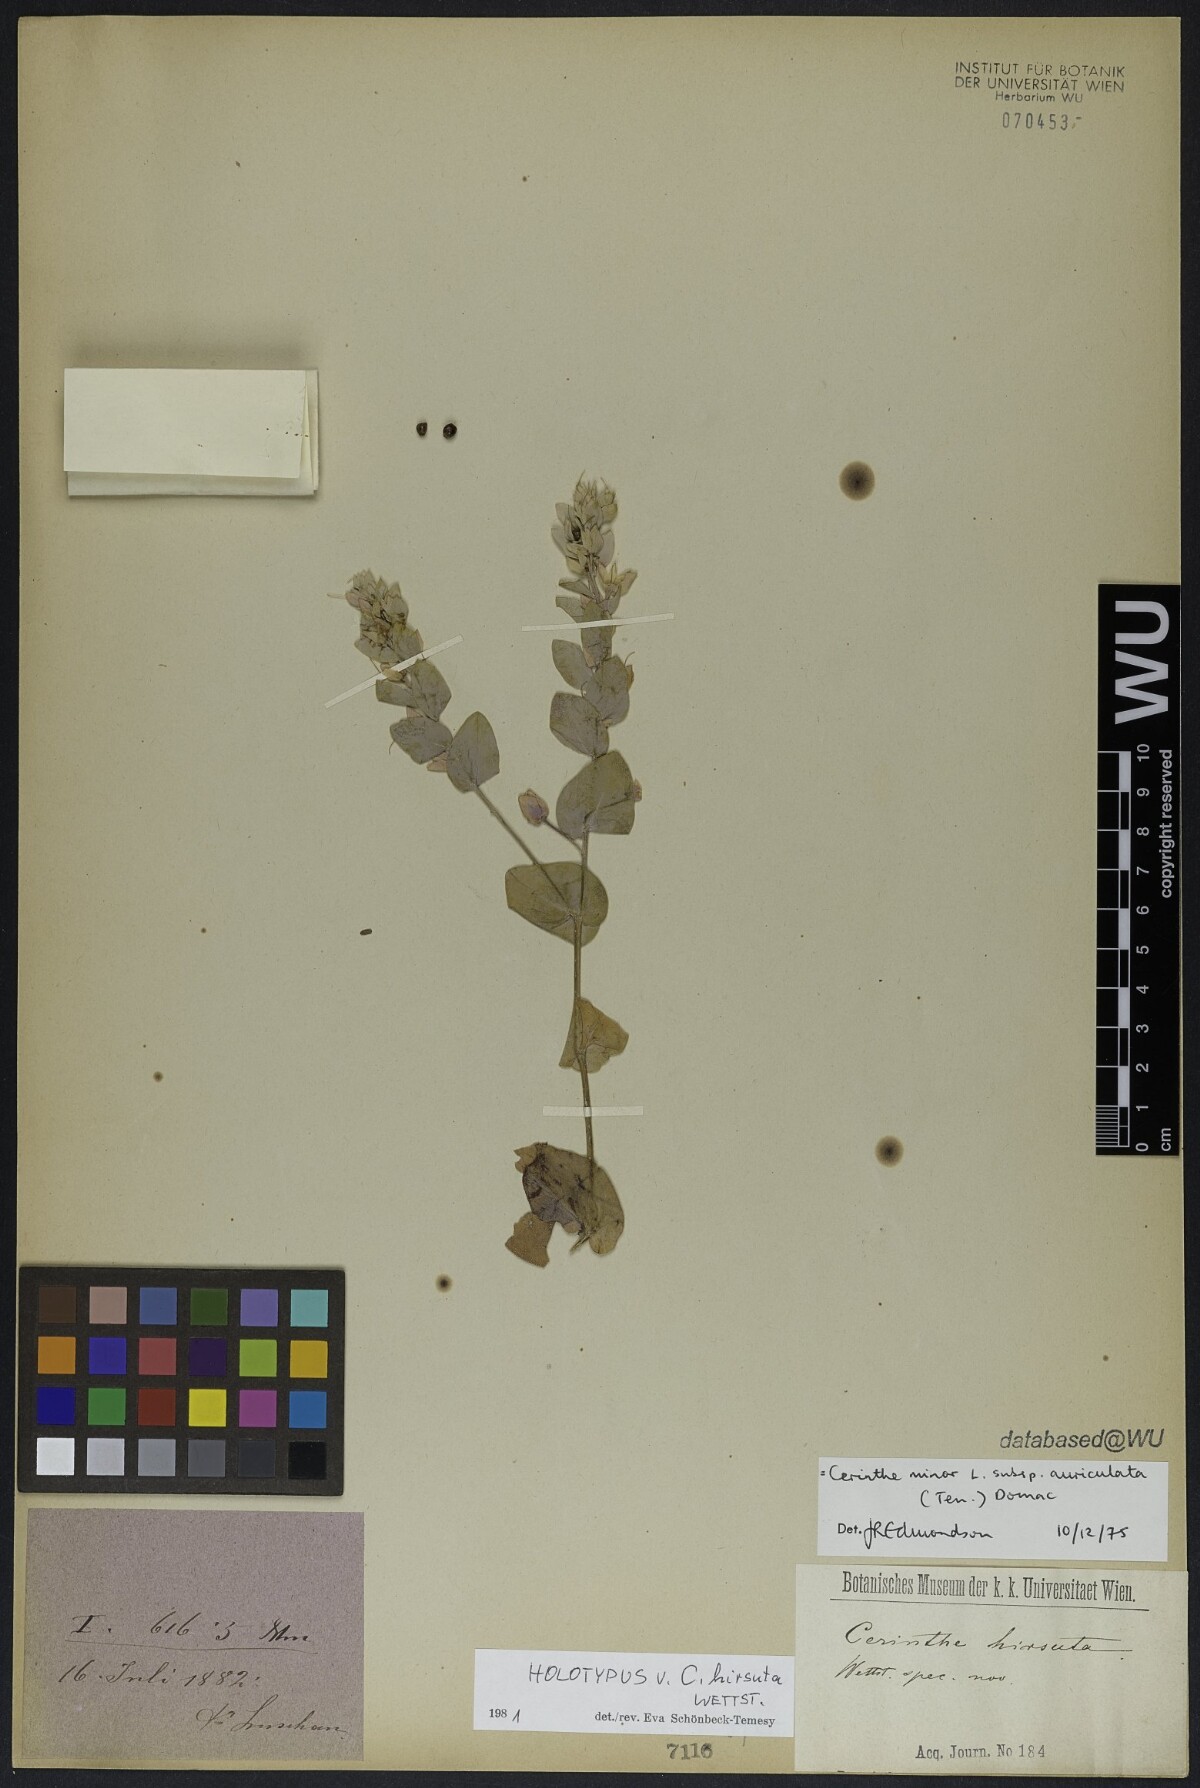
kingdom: Plantae
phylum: Tracheophyta
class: Magnoliopsida
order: Boraginales
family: Boraginaceae
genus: Cerinthe
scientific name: Cerinthe minor
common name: Lesser honeywort
